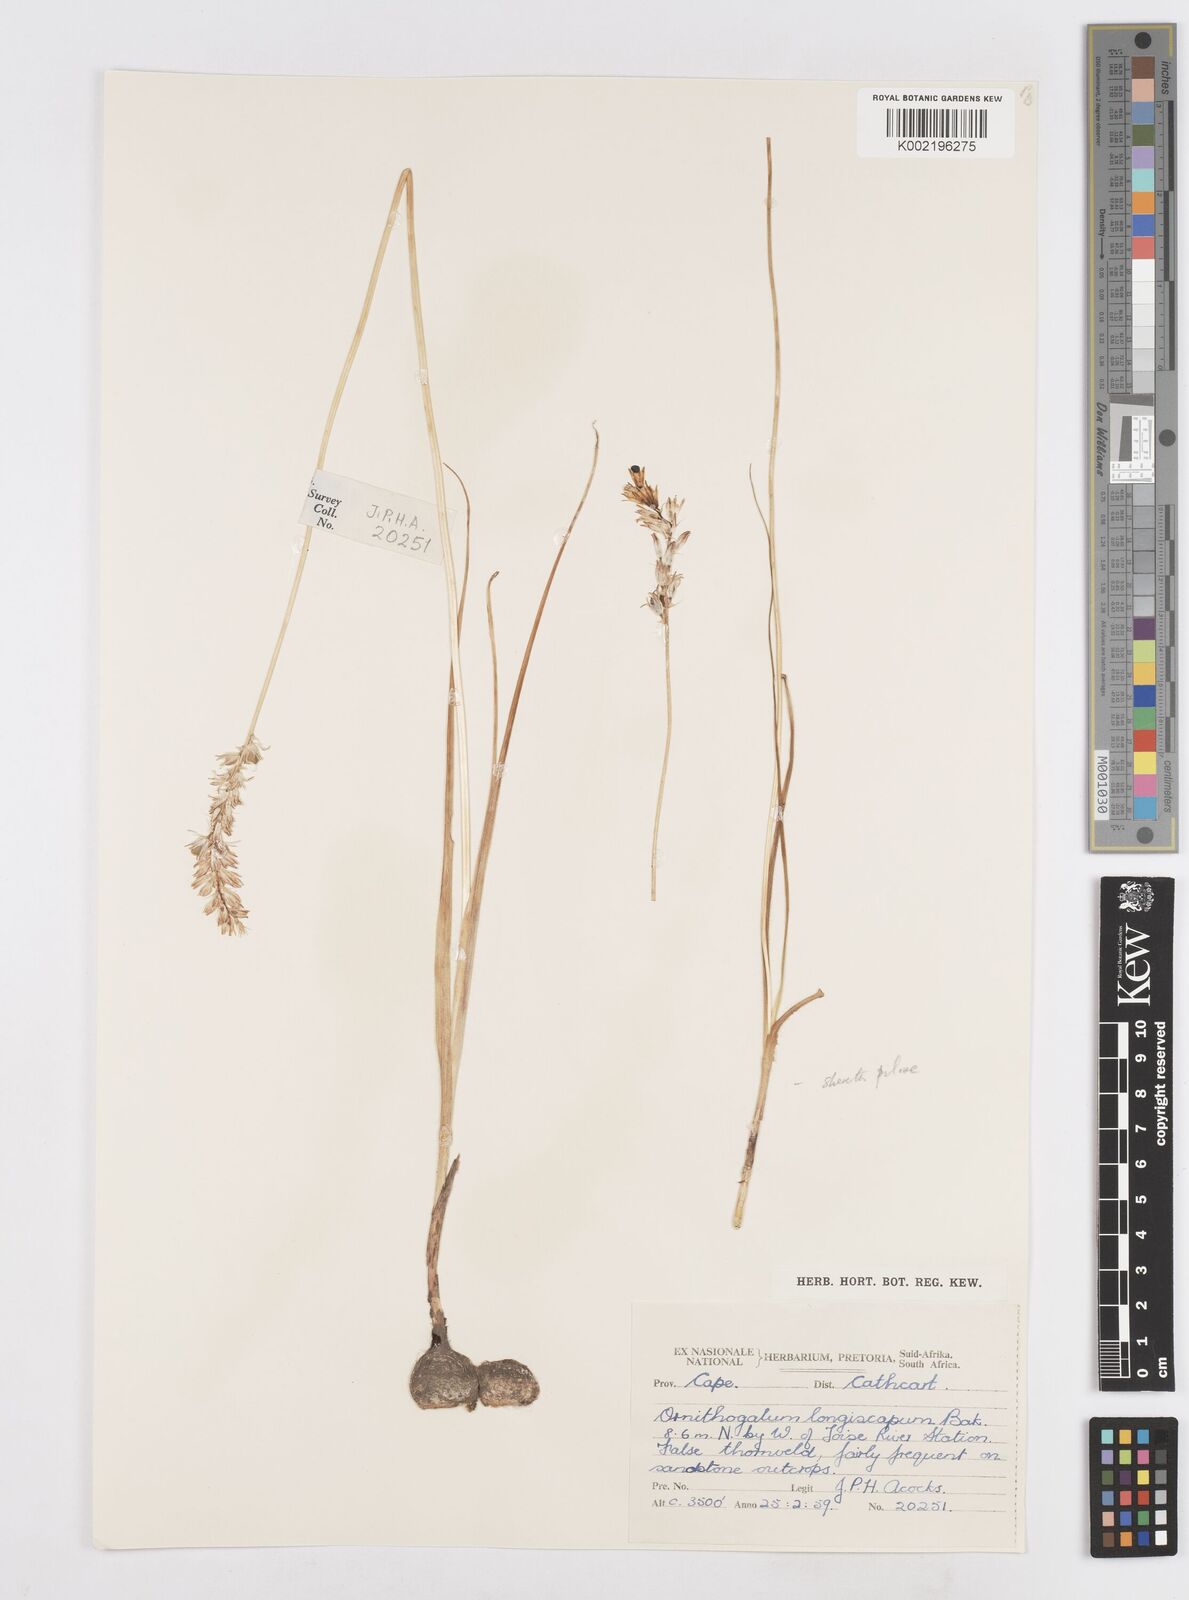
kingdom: Plantae
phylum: Tracheophyta
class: Liliopsida
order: Asparagales
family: Asparagaceae
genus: Ornithogalum
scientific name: Ornithogalum graminifolium
